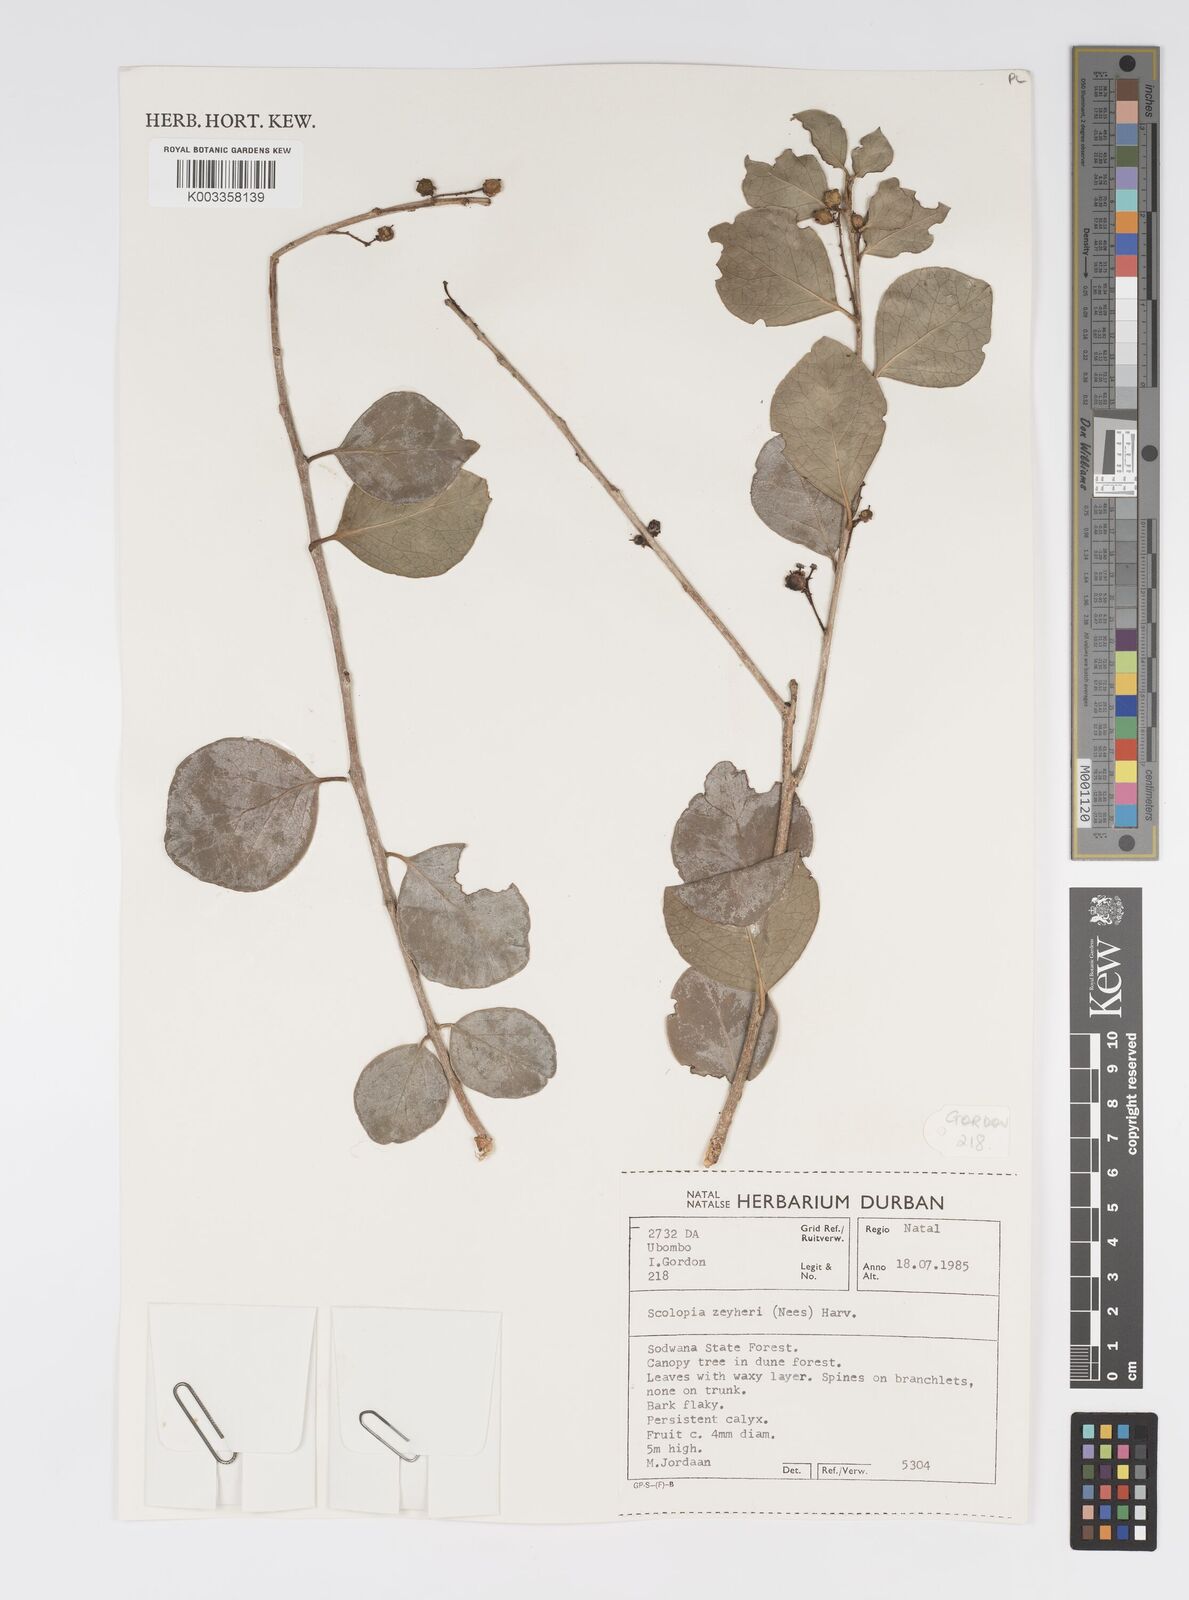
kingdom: Plantae
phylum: Tracheophyta
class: Magnoliopsida
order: Malpighiales
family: Salicaceae
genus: Scolopia
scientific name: Scolopia zeyheri
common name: Thorn pear
